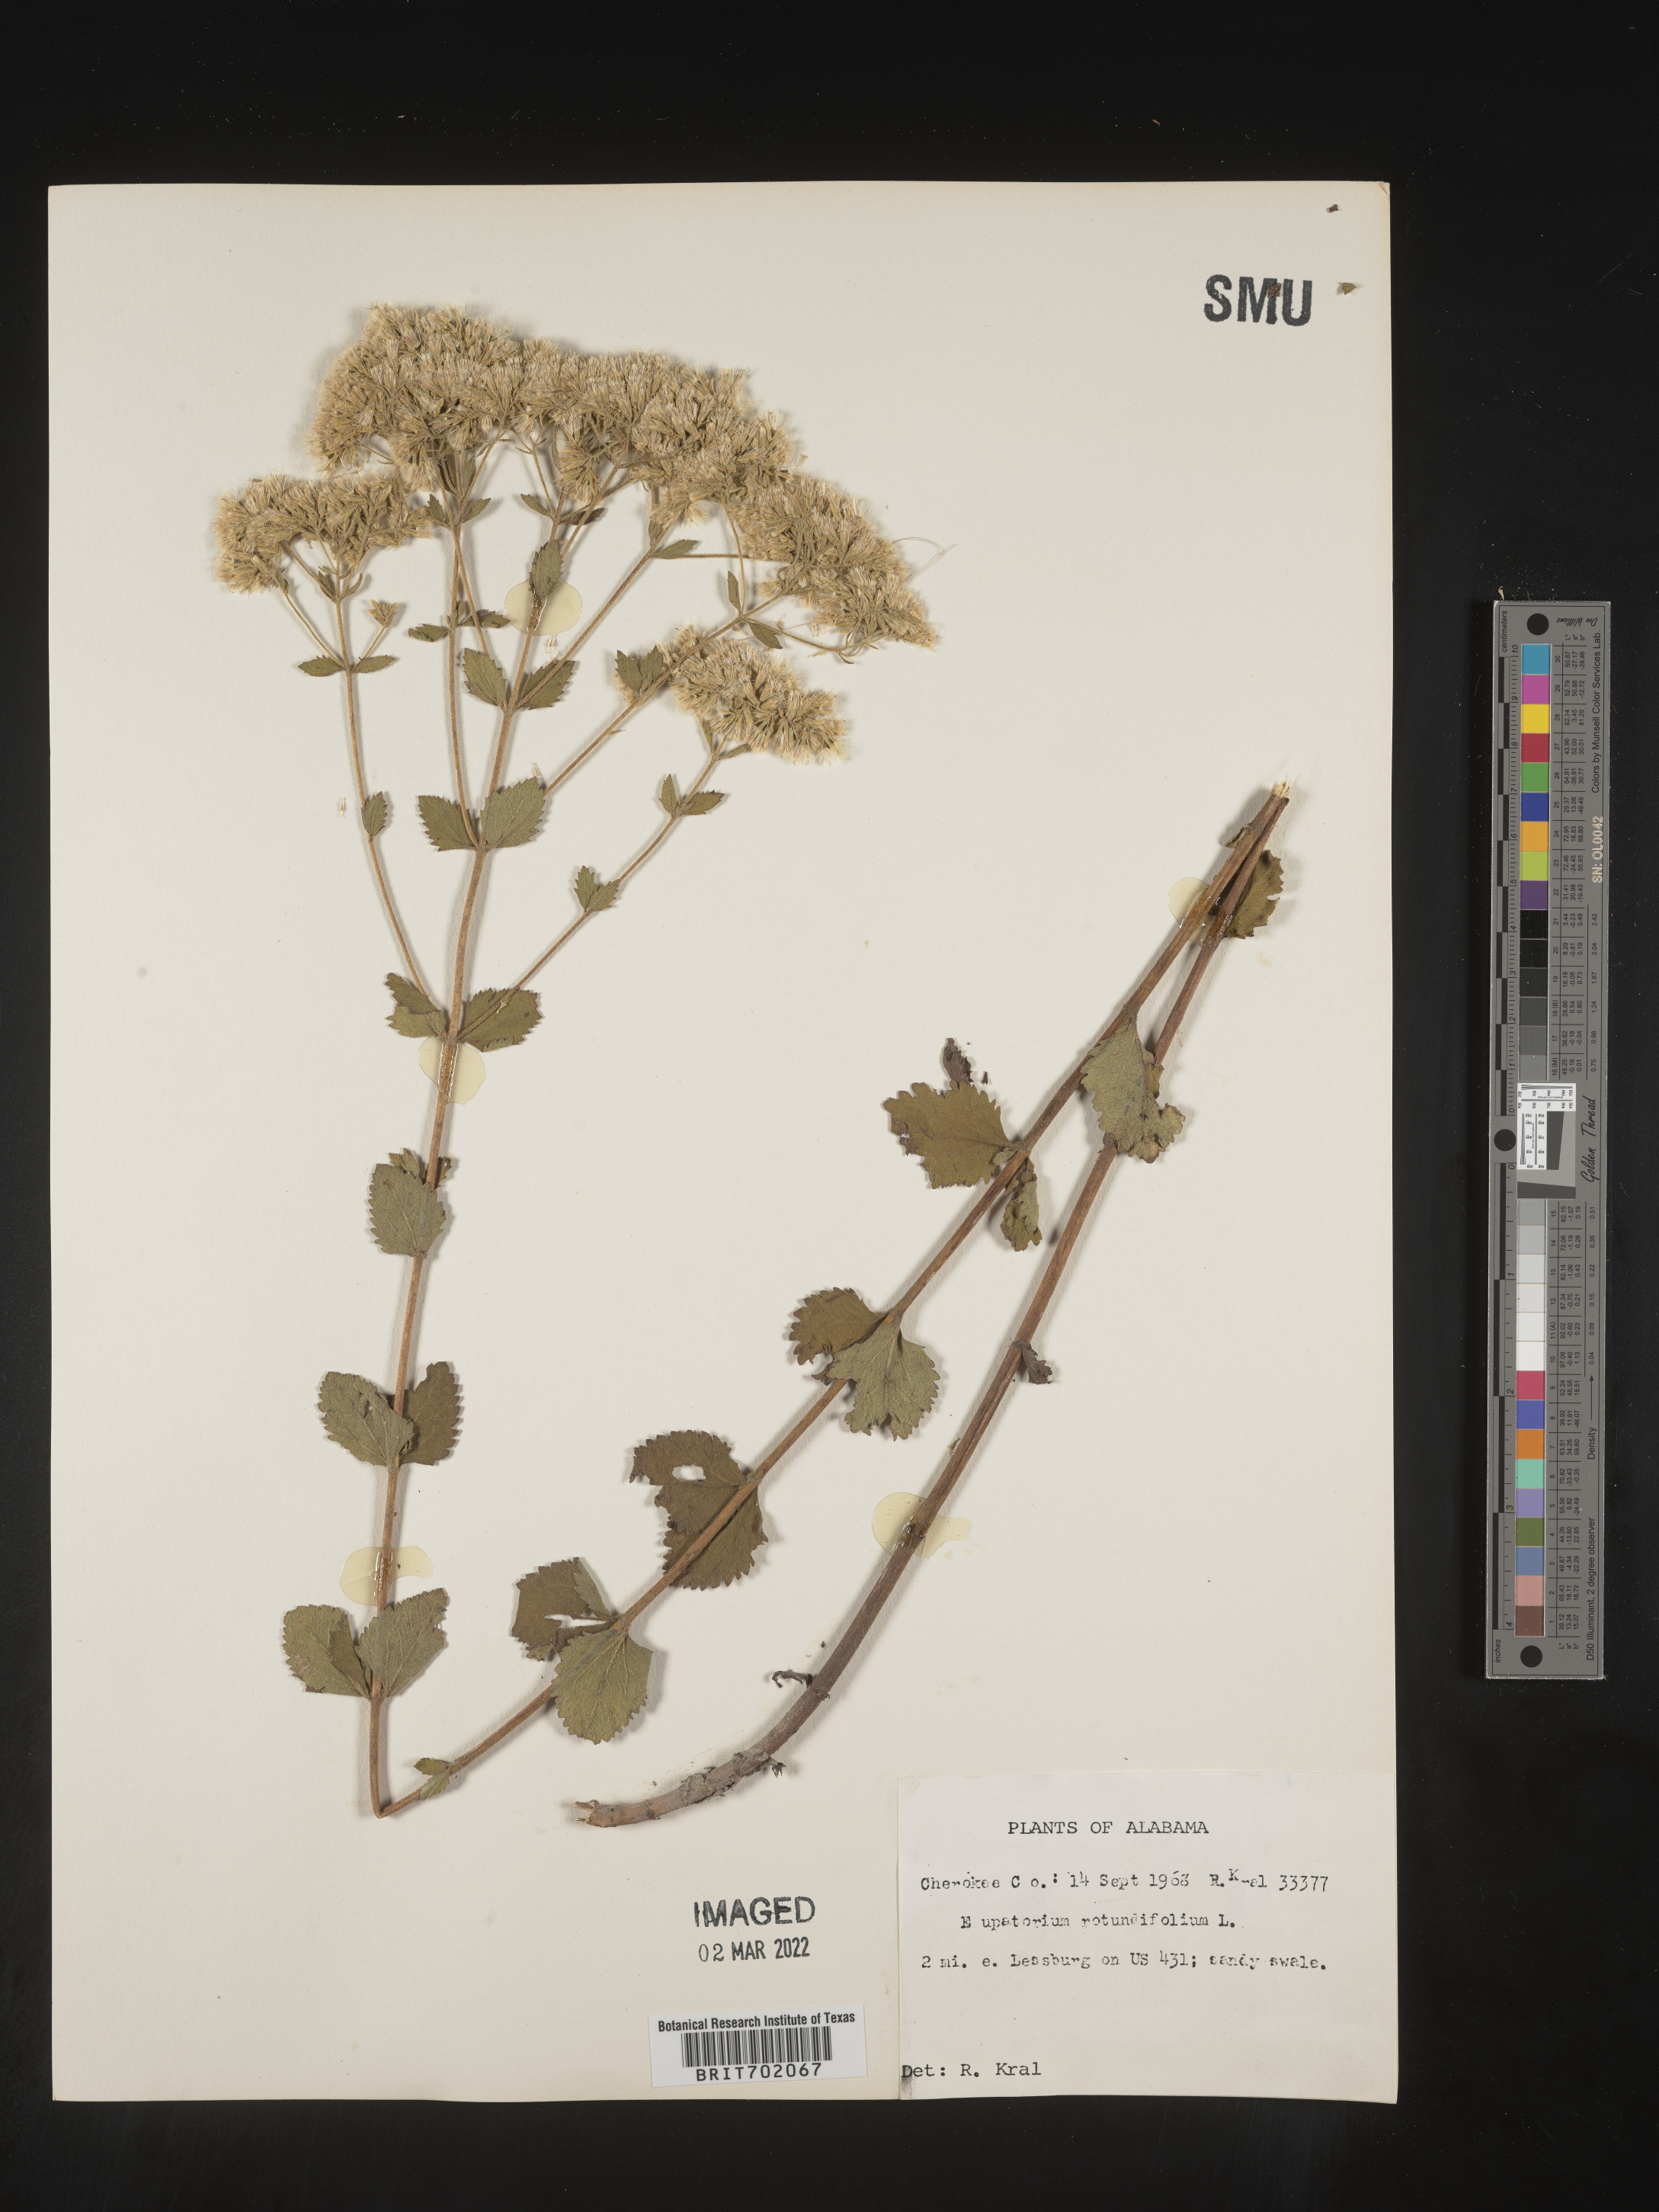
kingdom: Plantae
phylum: Tracheophyta
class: Magnoliopsida
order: Asterales
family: Asteraceae
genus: Eupatorium
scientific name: Eupatorium rotundifolium
